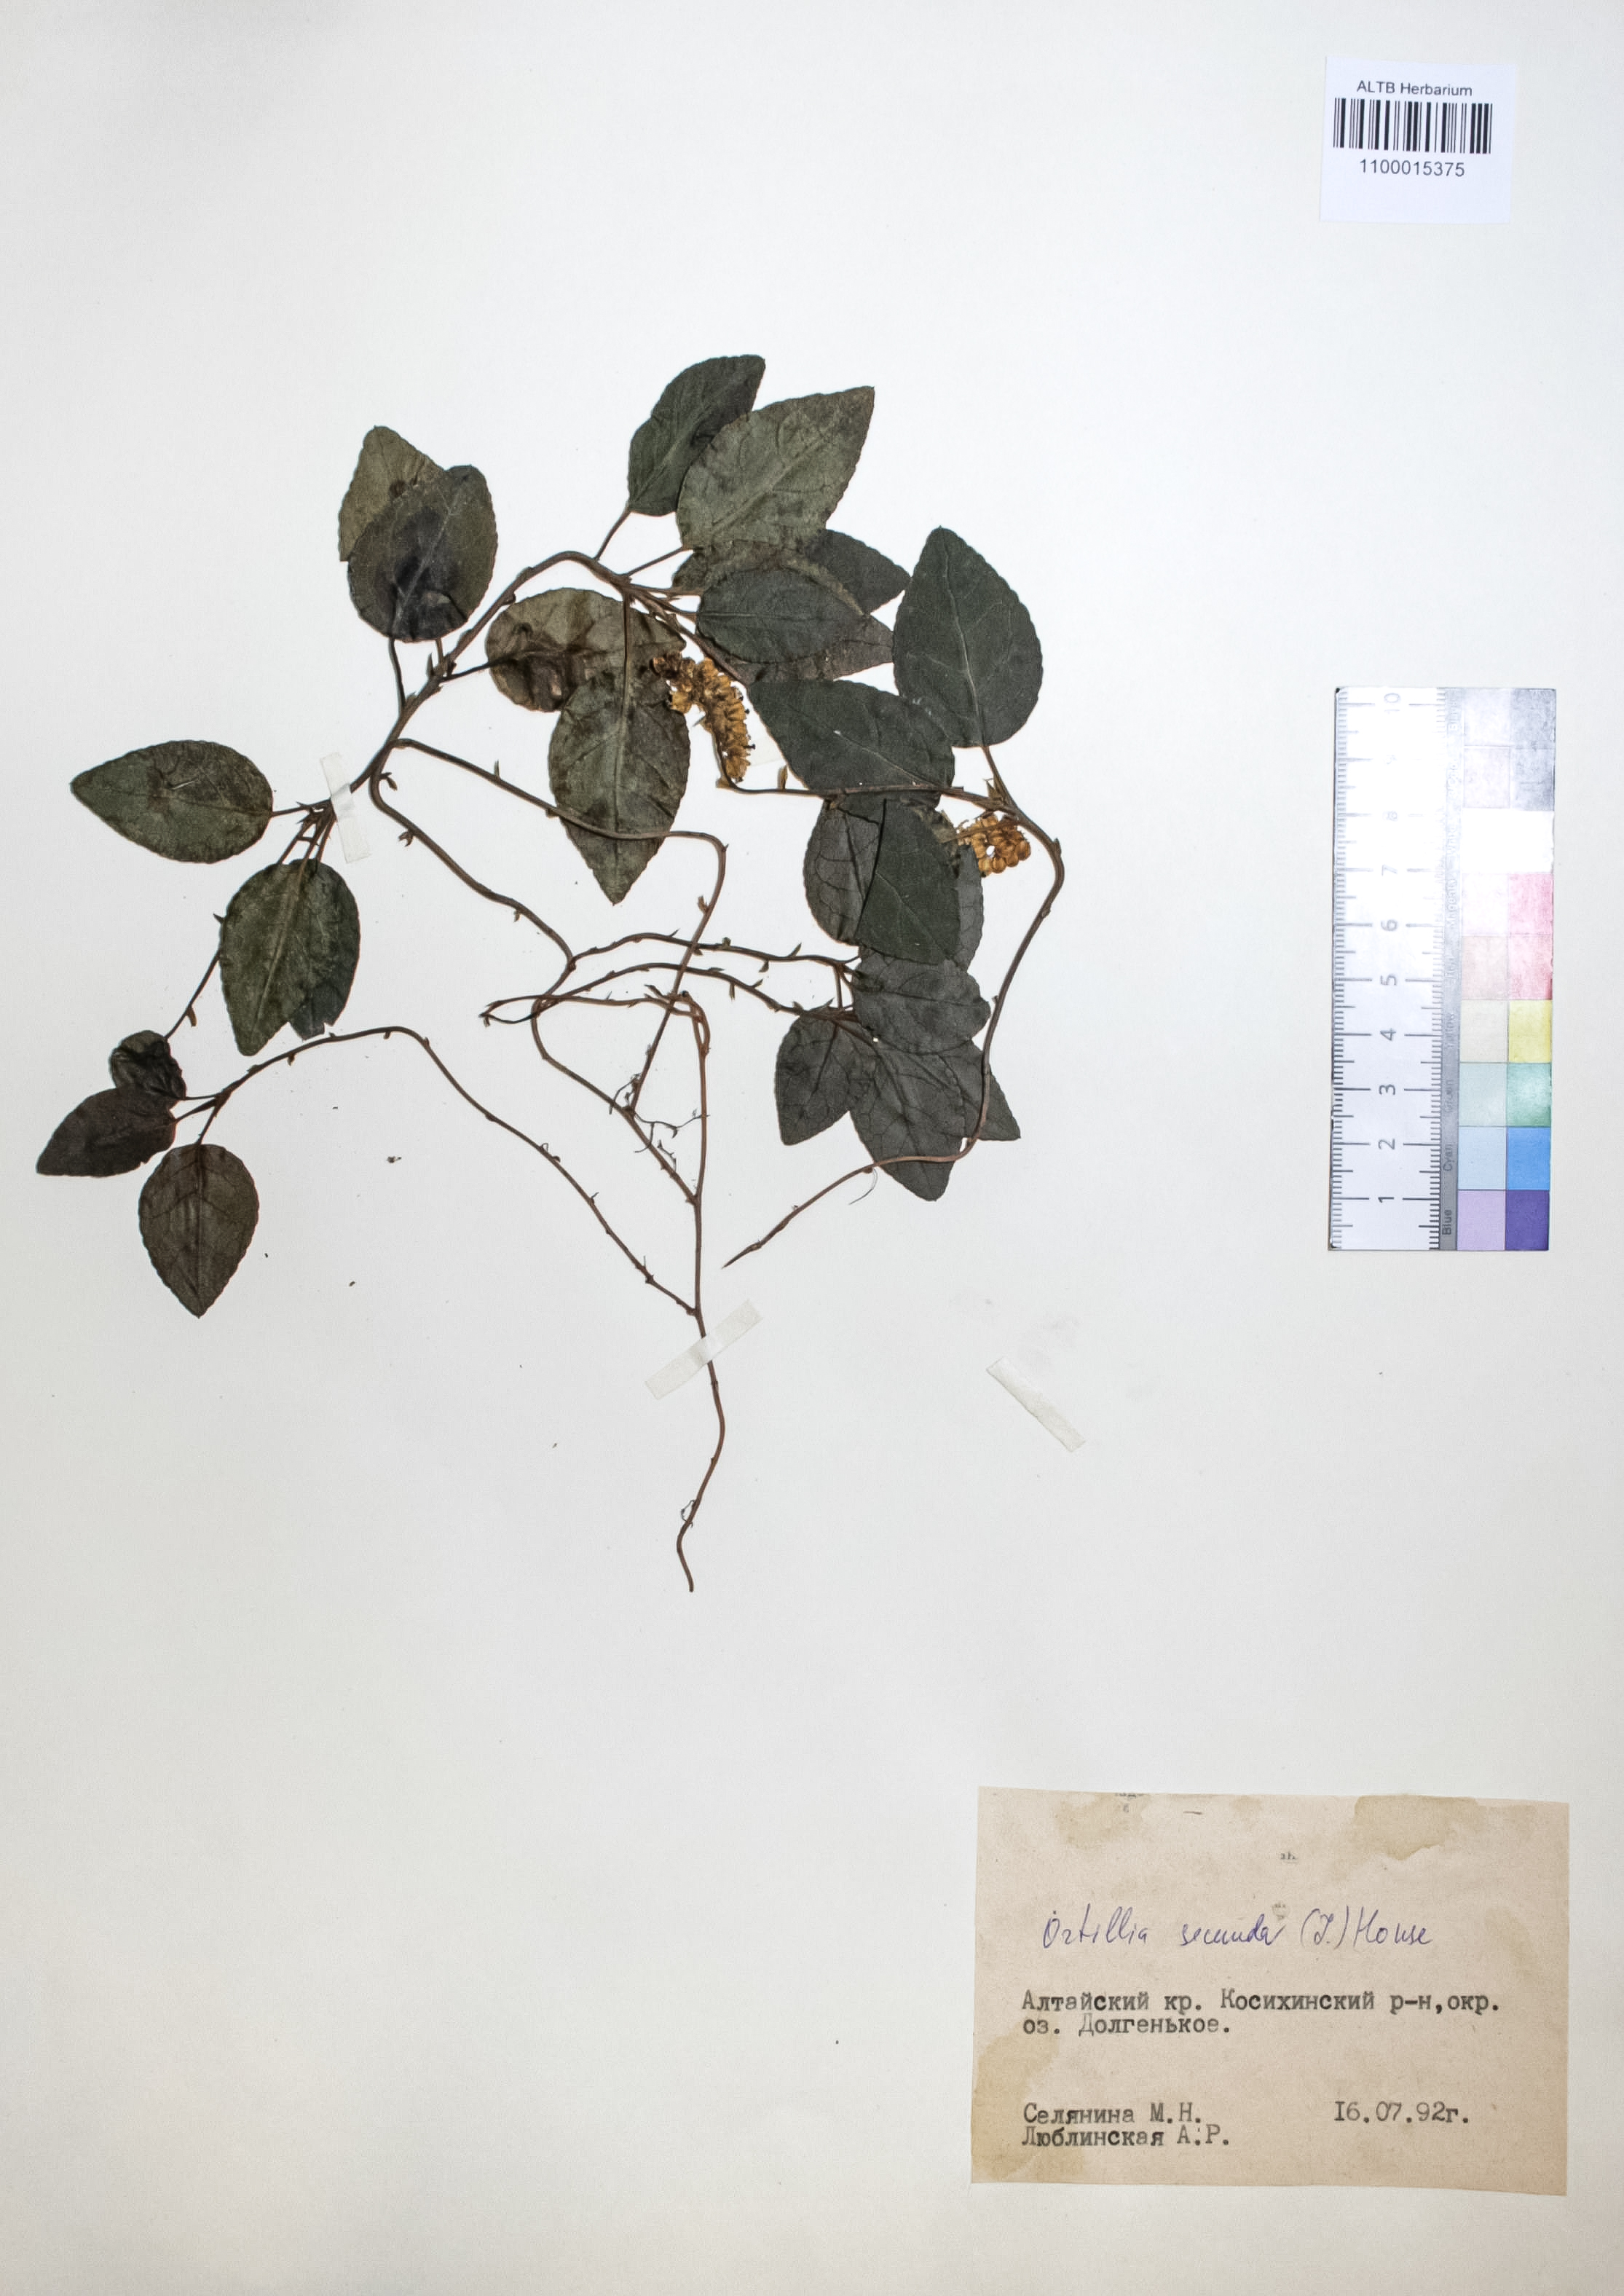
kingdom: Plantae
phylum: Tracheophyta
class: Magnoliopsida
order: Ericales
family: Ericaceae
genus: Orthilia
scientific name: Orthilia secunda
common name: One-sided orthilia
